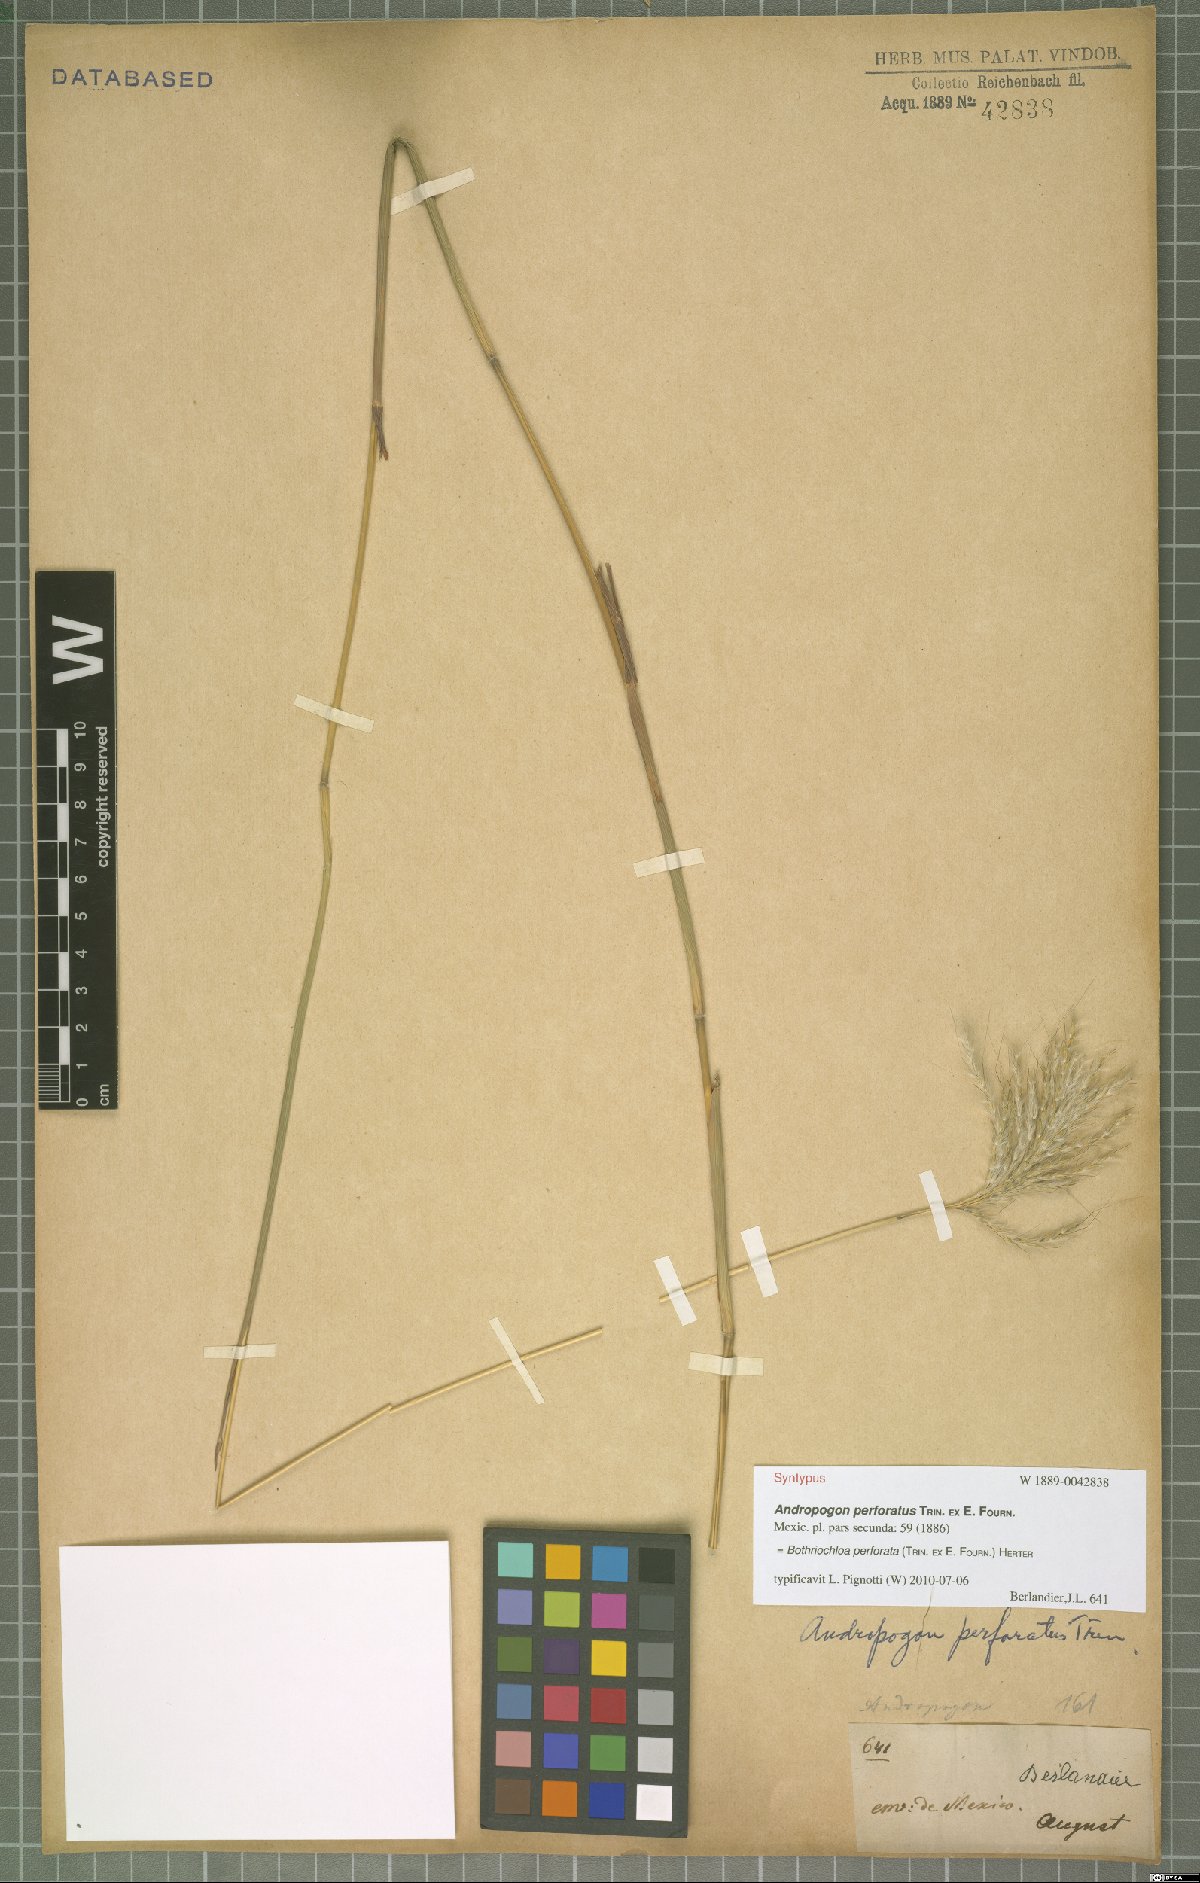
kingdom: Plantae
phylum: Tracheophyta
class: Liliopsida
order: Poales
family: Poaceae
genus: Bothriochloa
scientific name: Bothriochloa barbinodis
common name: Cane bluestem
